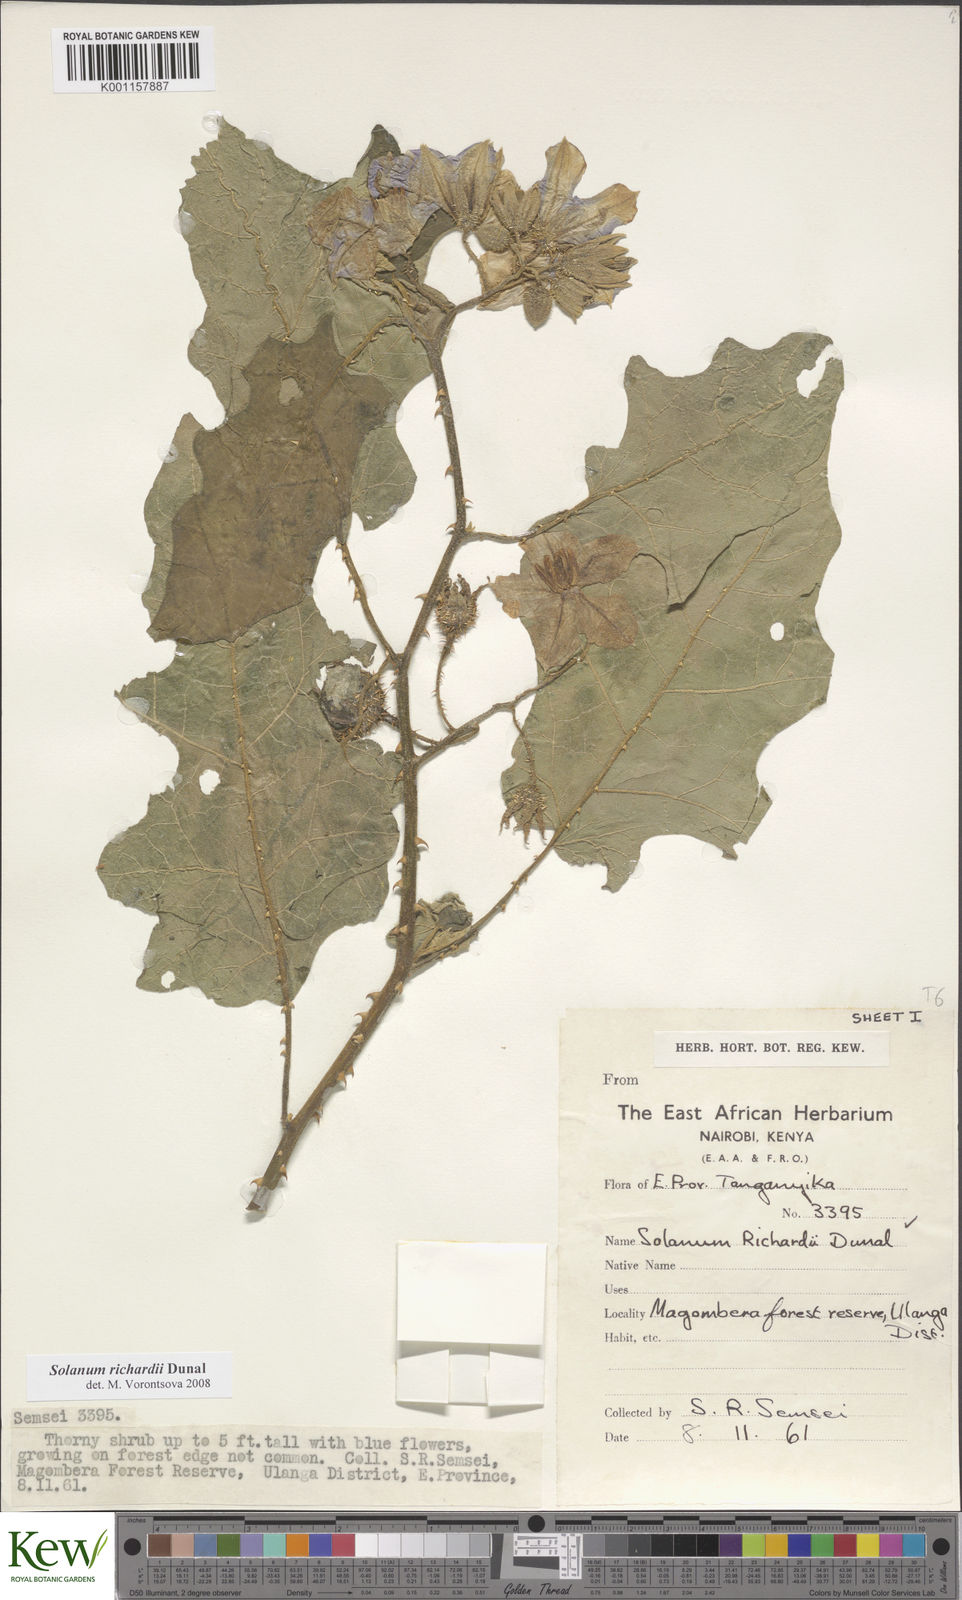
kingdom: Plantae
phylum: Tracheophyta
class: Magnoliopsida
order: Solanales
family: Solanaceae
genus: Solanum
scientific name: Solanum richardii
